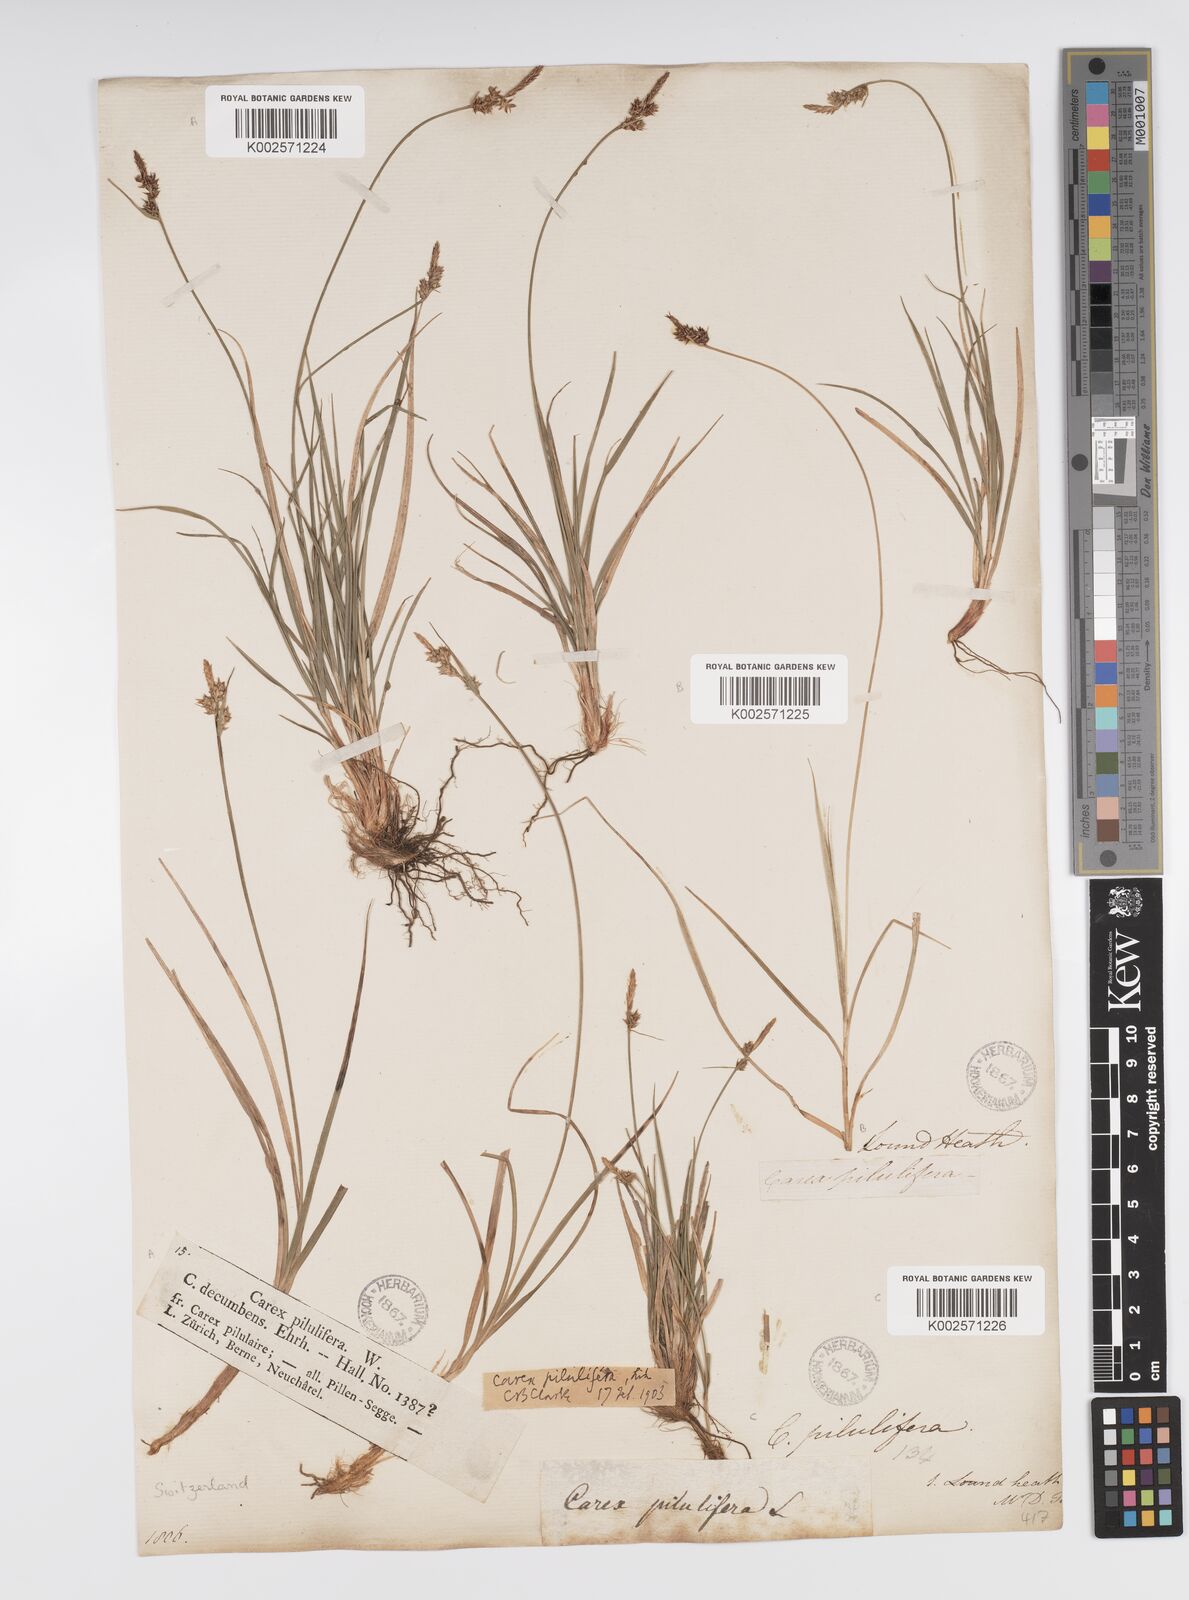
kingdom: Plantae
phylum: Tracheophyta
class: Liliopsida
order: Poales
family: Cyperaceae
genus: Carex
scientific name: Carex pilulifera
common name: Pill sedge
